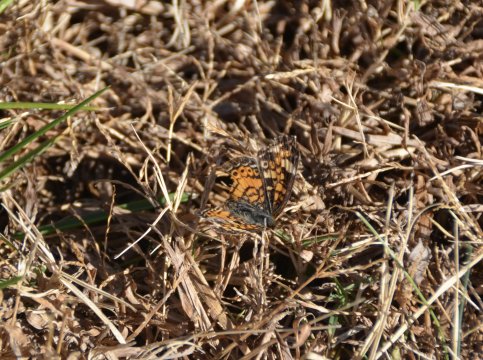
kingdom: Animalia
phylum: Arthropoda
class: Insecta
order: Lepidoptera
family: Nymphalidae
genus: Phyciodes
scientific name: Phyciodes tharos
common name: Pearl Crescent
